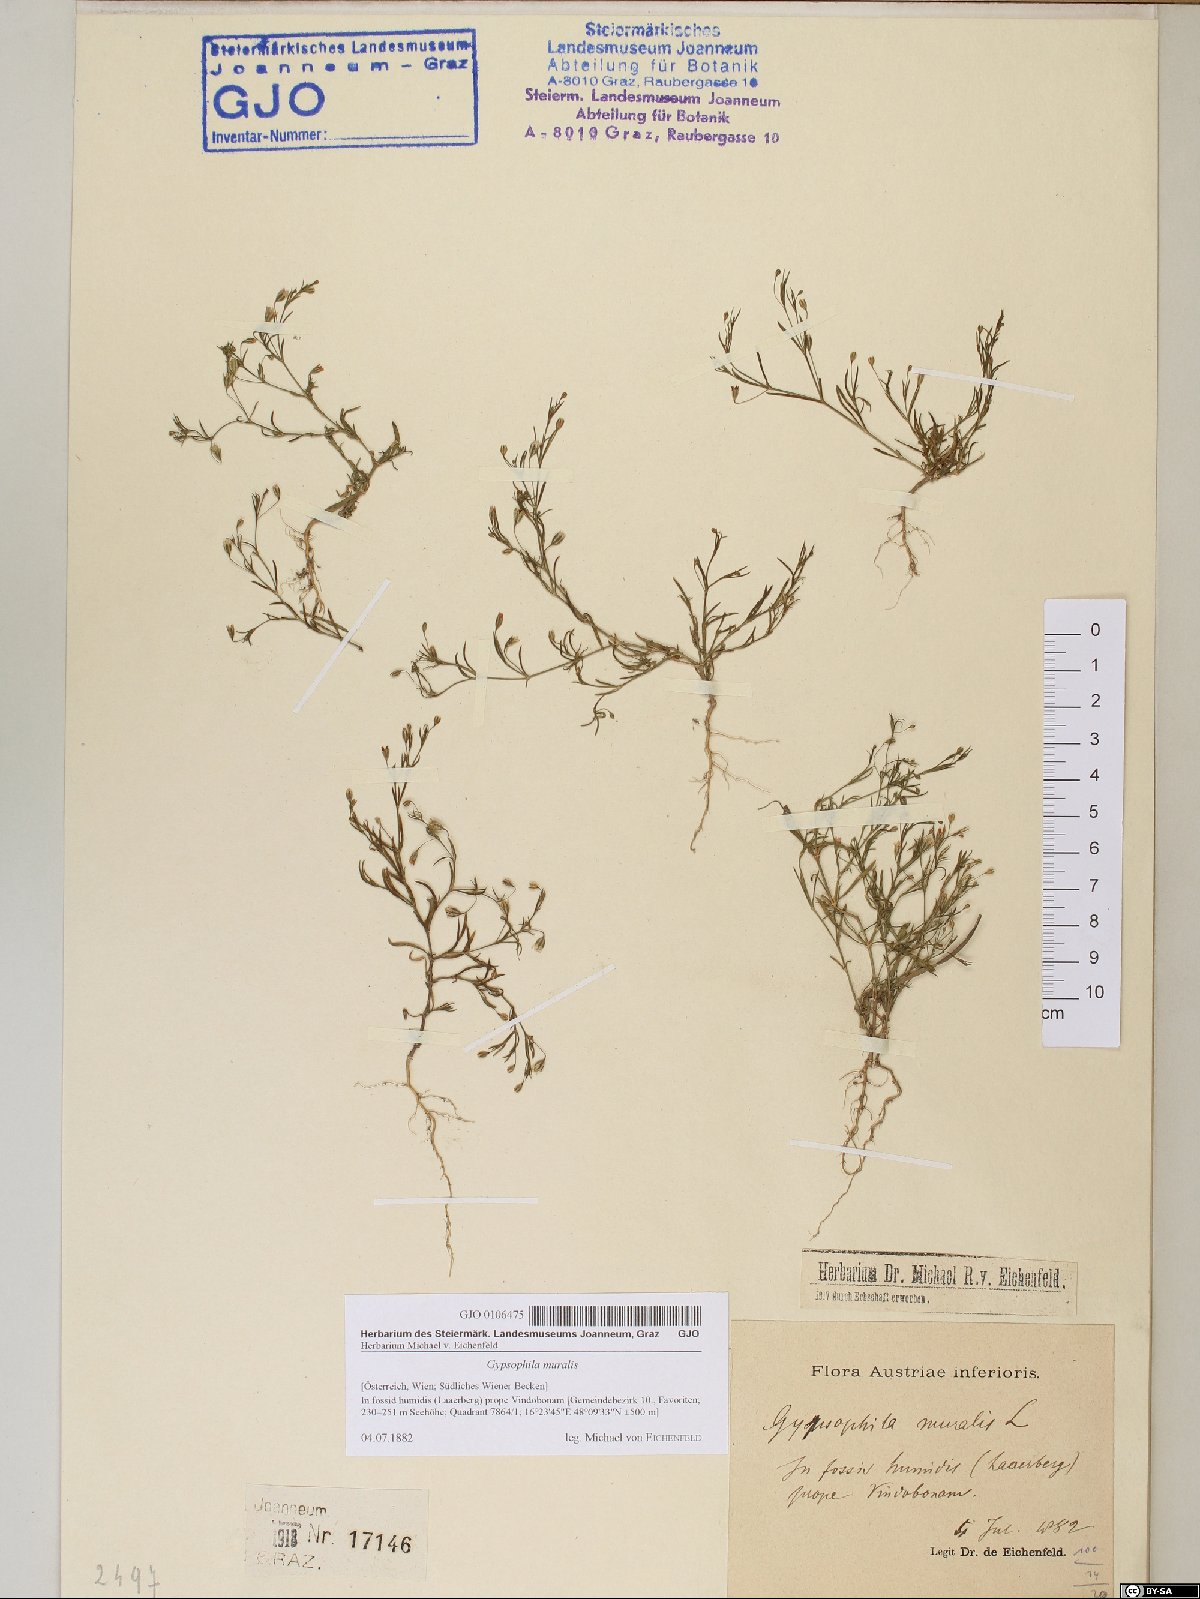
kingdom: Plantae
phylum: Tracheophyta
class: Magnoliopsida
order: Caryophyllales
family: Caryophyllaceae
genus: Psammophiliella
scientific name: Psammophiliella muralis
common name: Cushion baby's-breath
